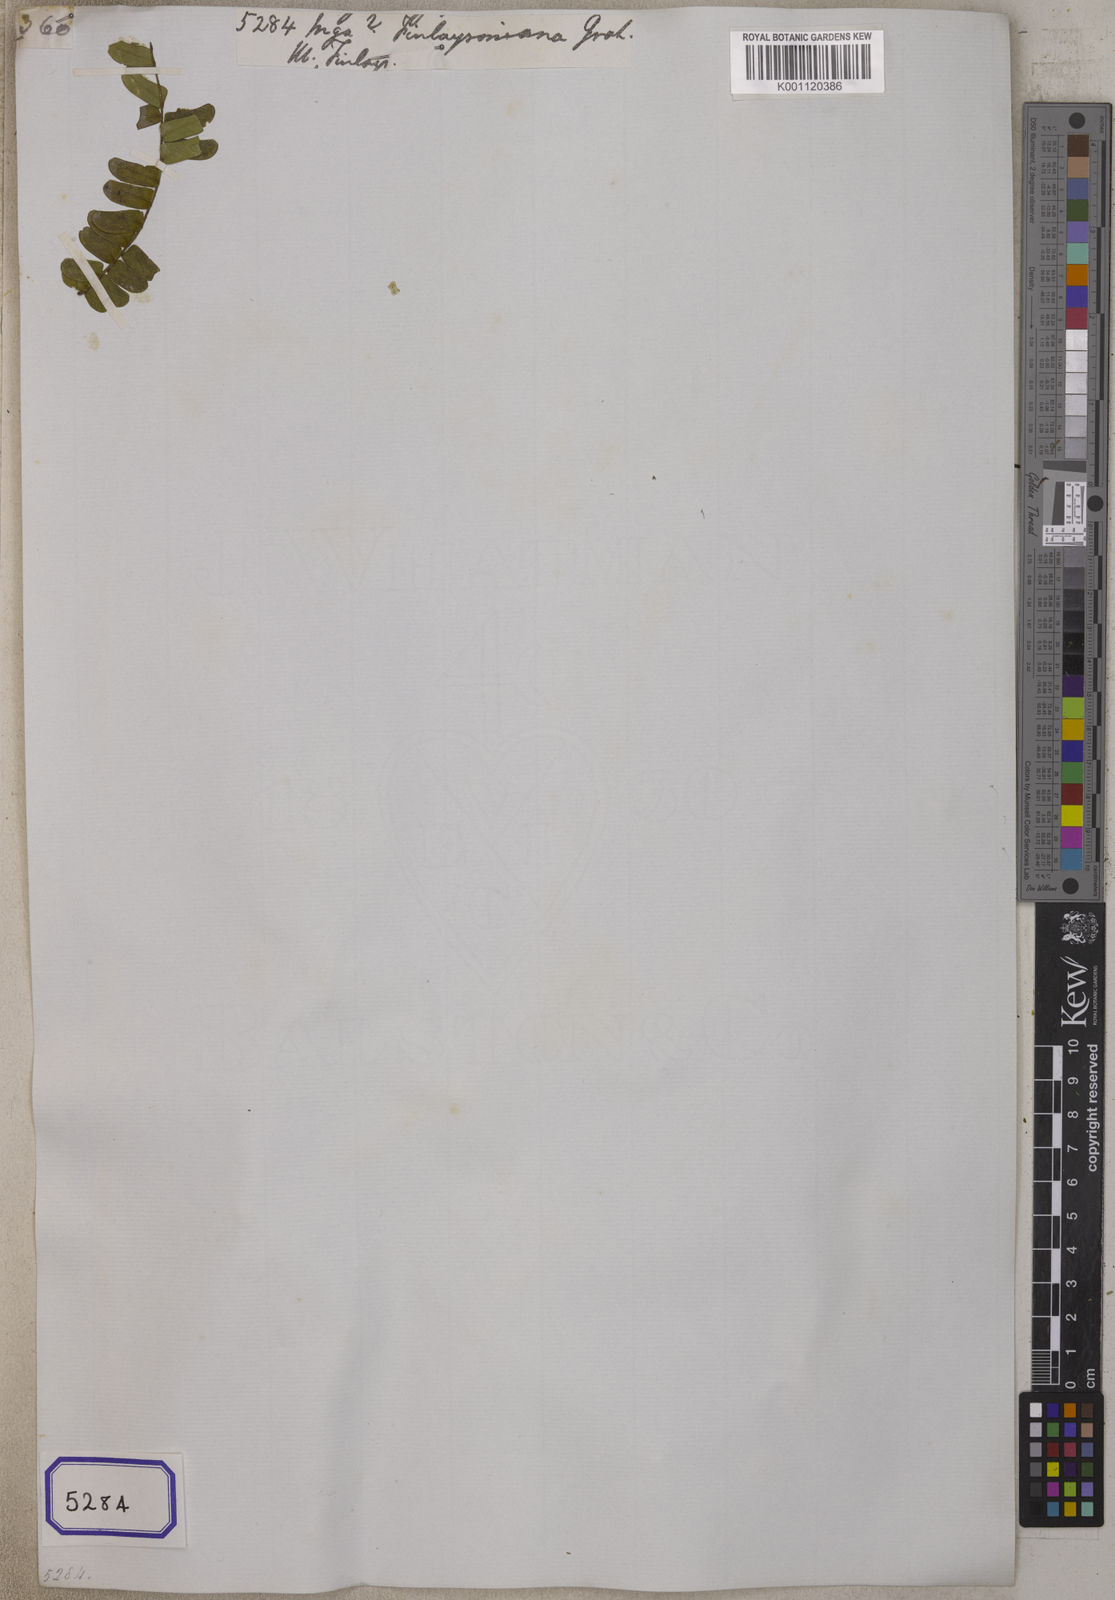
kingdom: Plantae
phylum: Tracheophyta
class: Magnoliopsida
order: Fabales
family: Fabaceae
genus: Archidendron
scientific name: Archidendron contortum
